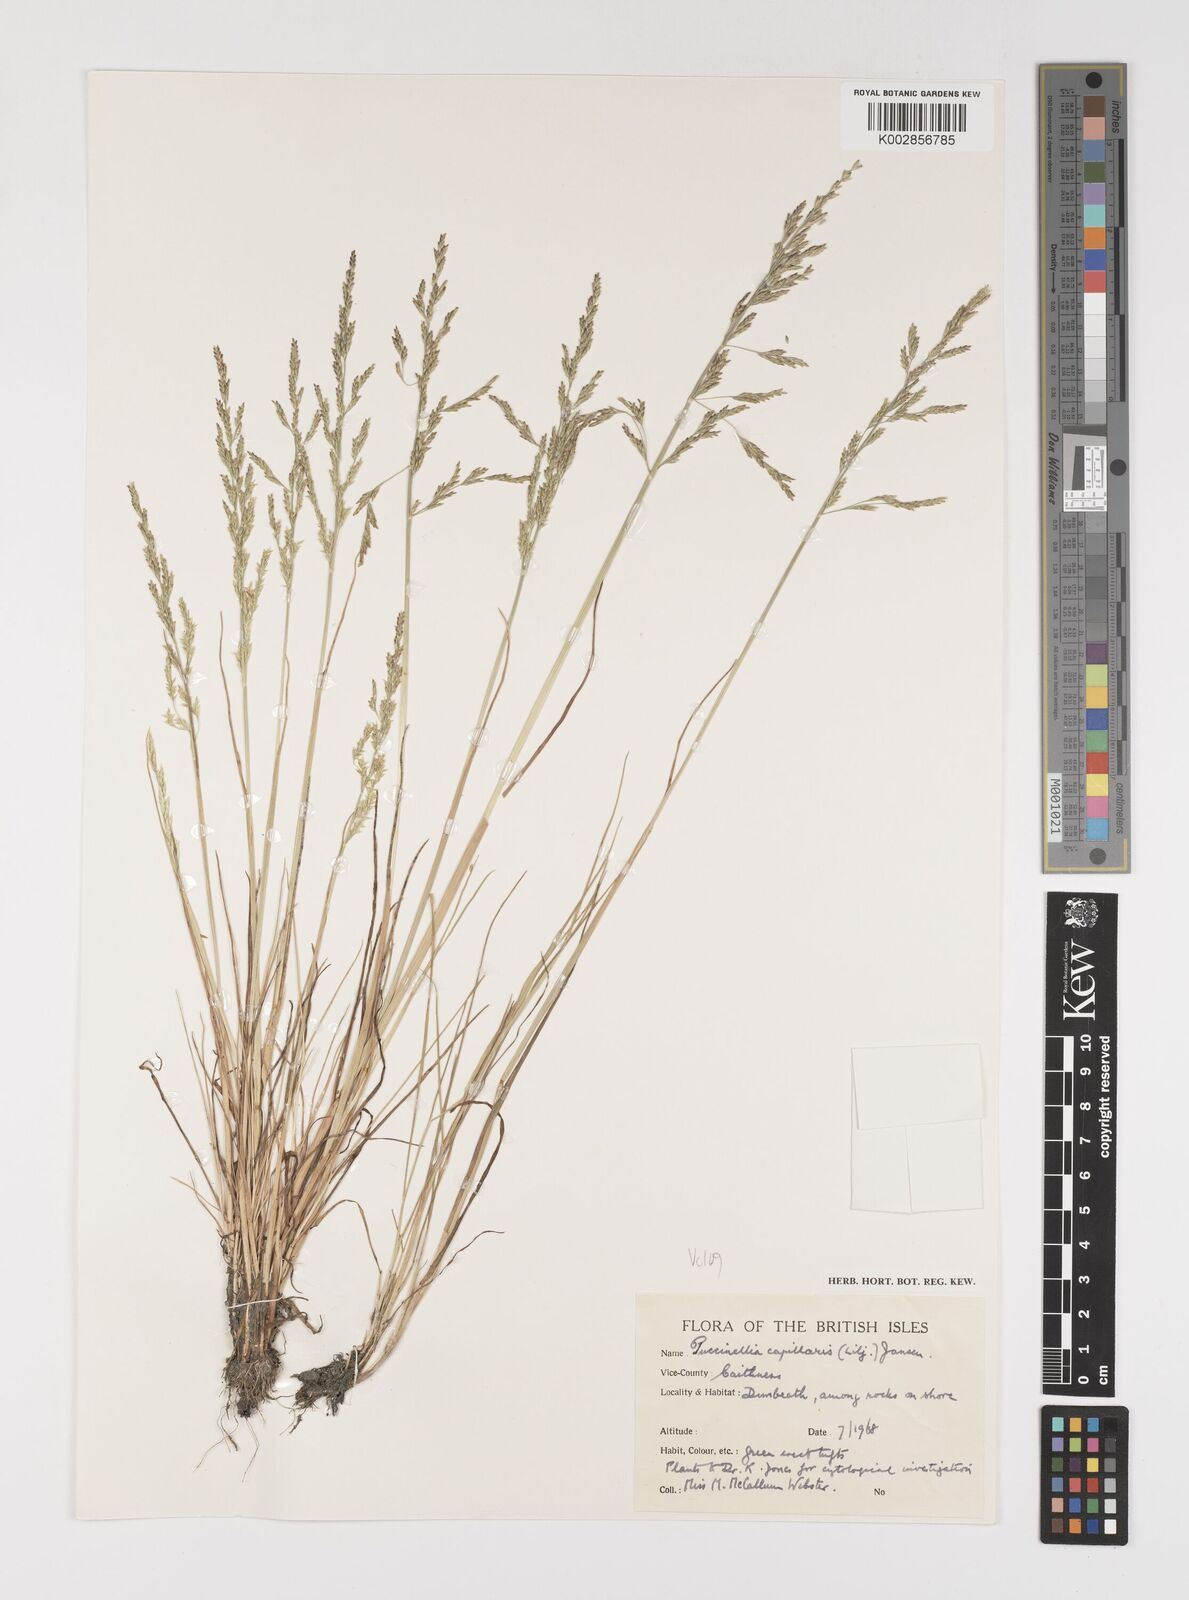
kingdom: Plantae
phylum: Tracheophyta
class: Liliopsida
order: Poales
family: Poaceae
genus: Puccinellia
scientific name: Puccinellia distans
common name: Weeping alkaligrass
